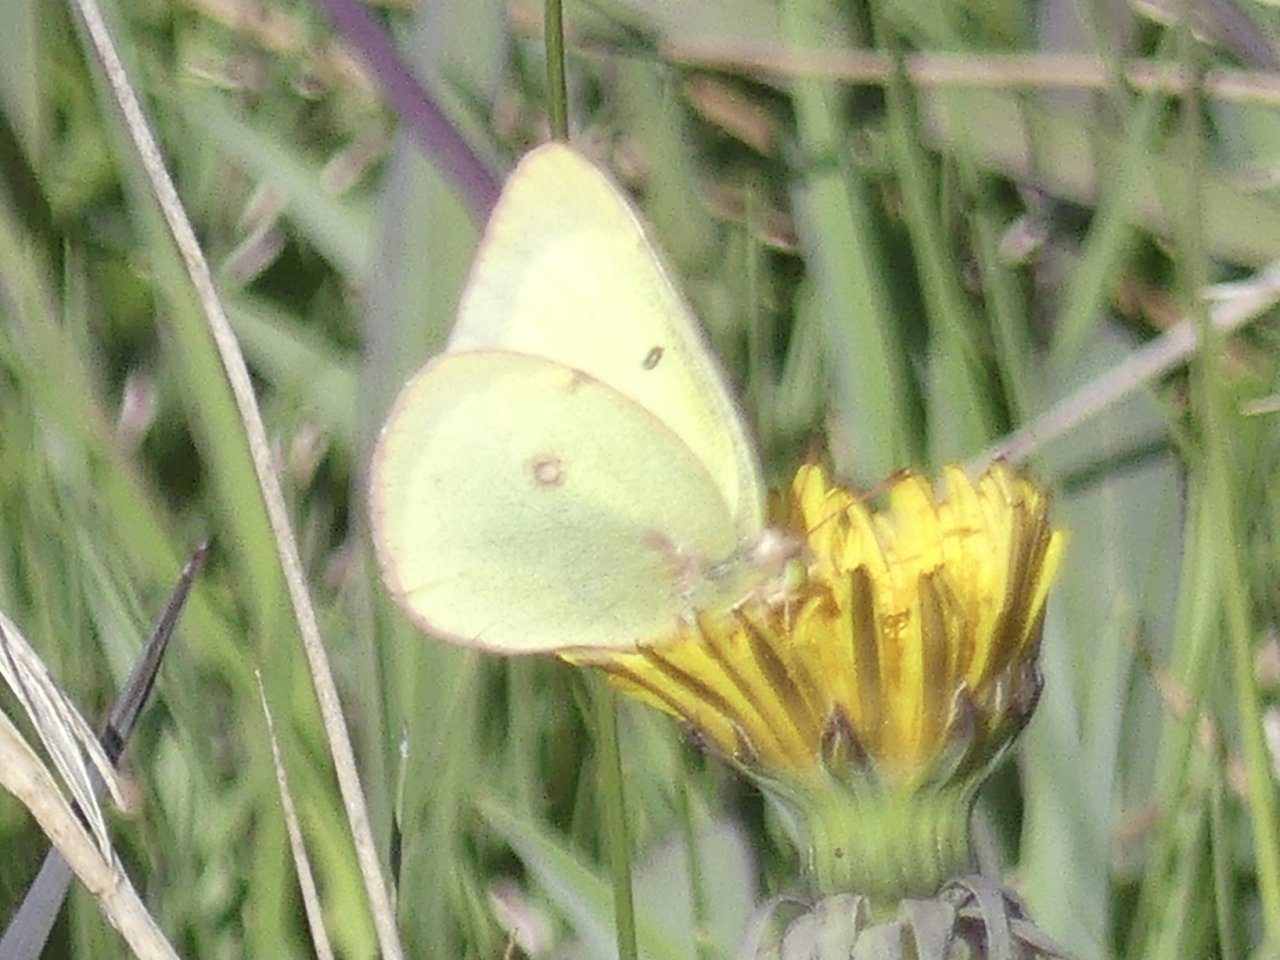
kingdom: Animalia
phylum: Arthropoda
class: Insecta
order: Lepidoptera
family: Pieridae
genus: Colias
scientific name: Colias philodice
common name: Clouded Sulphur
